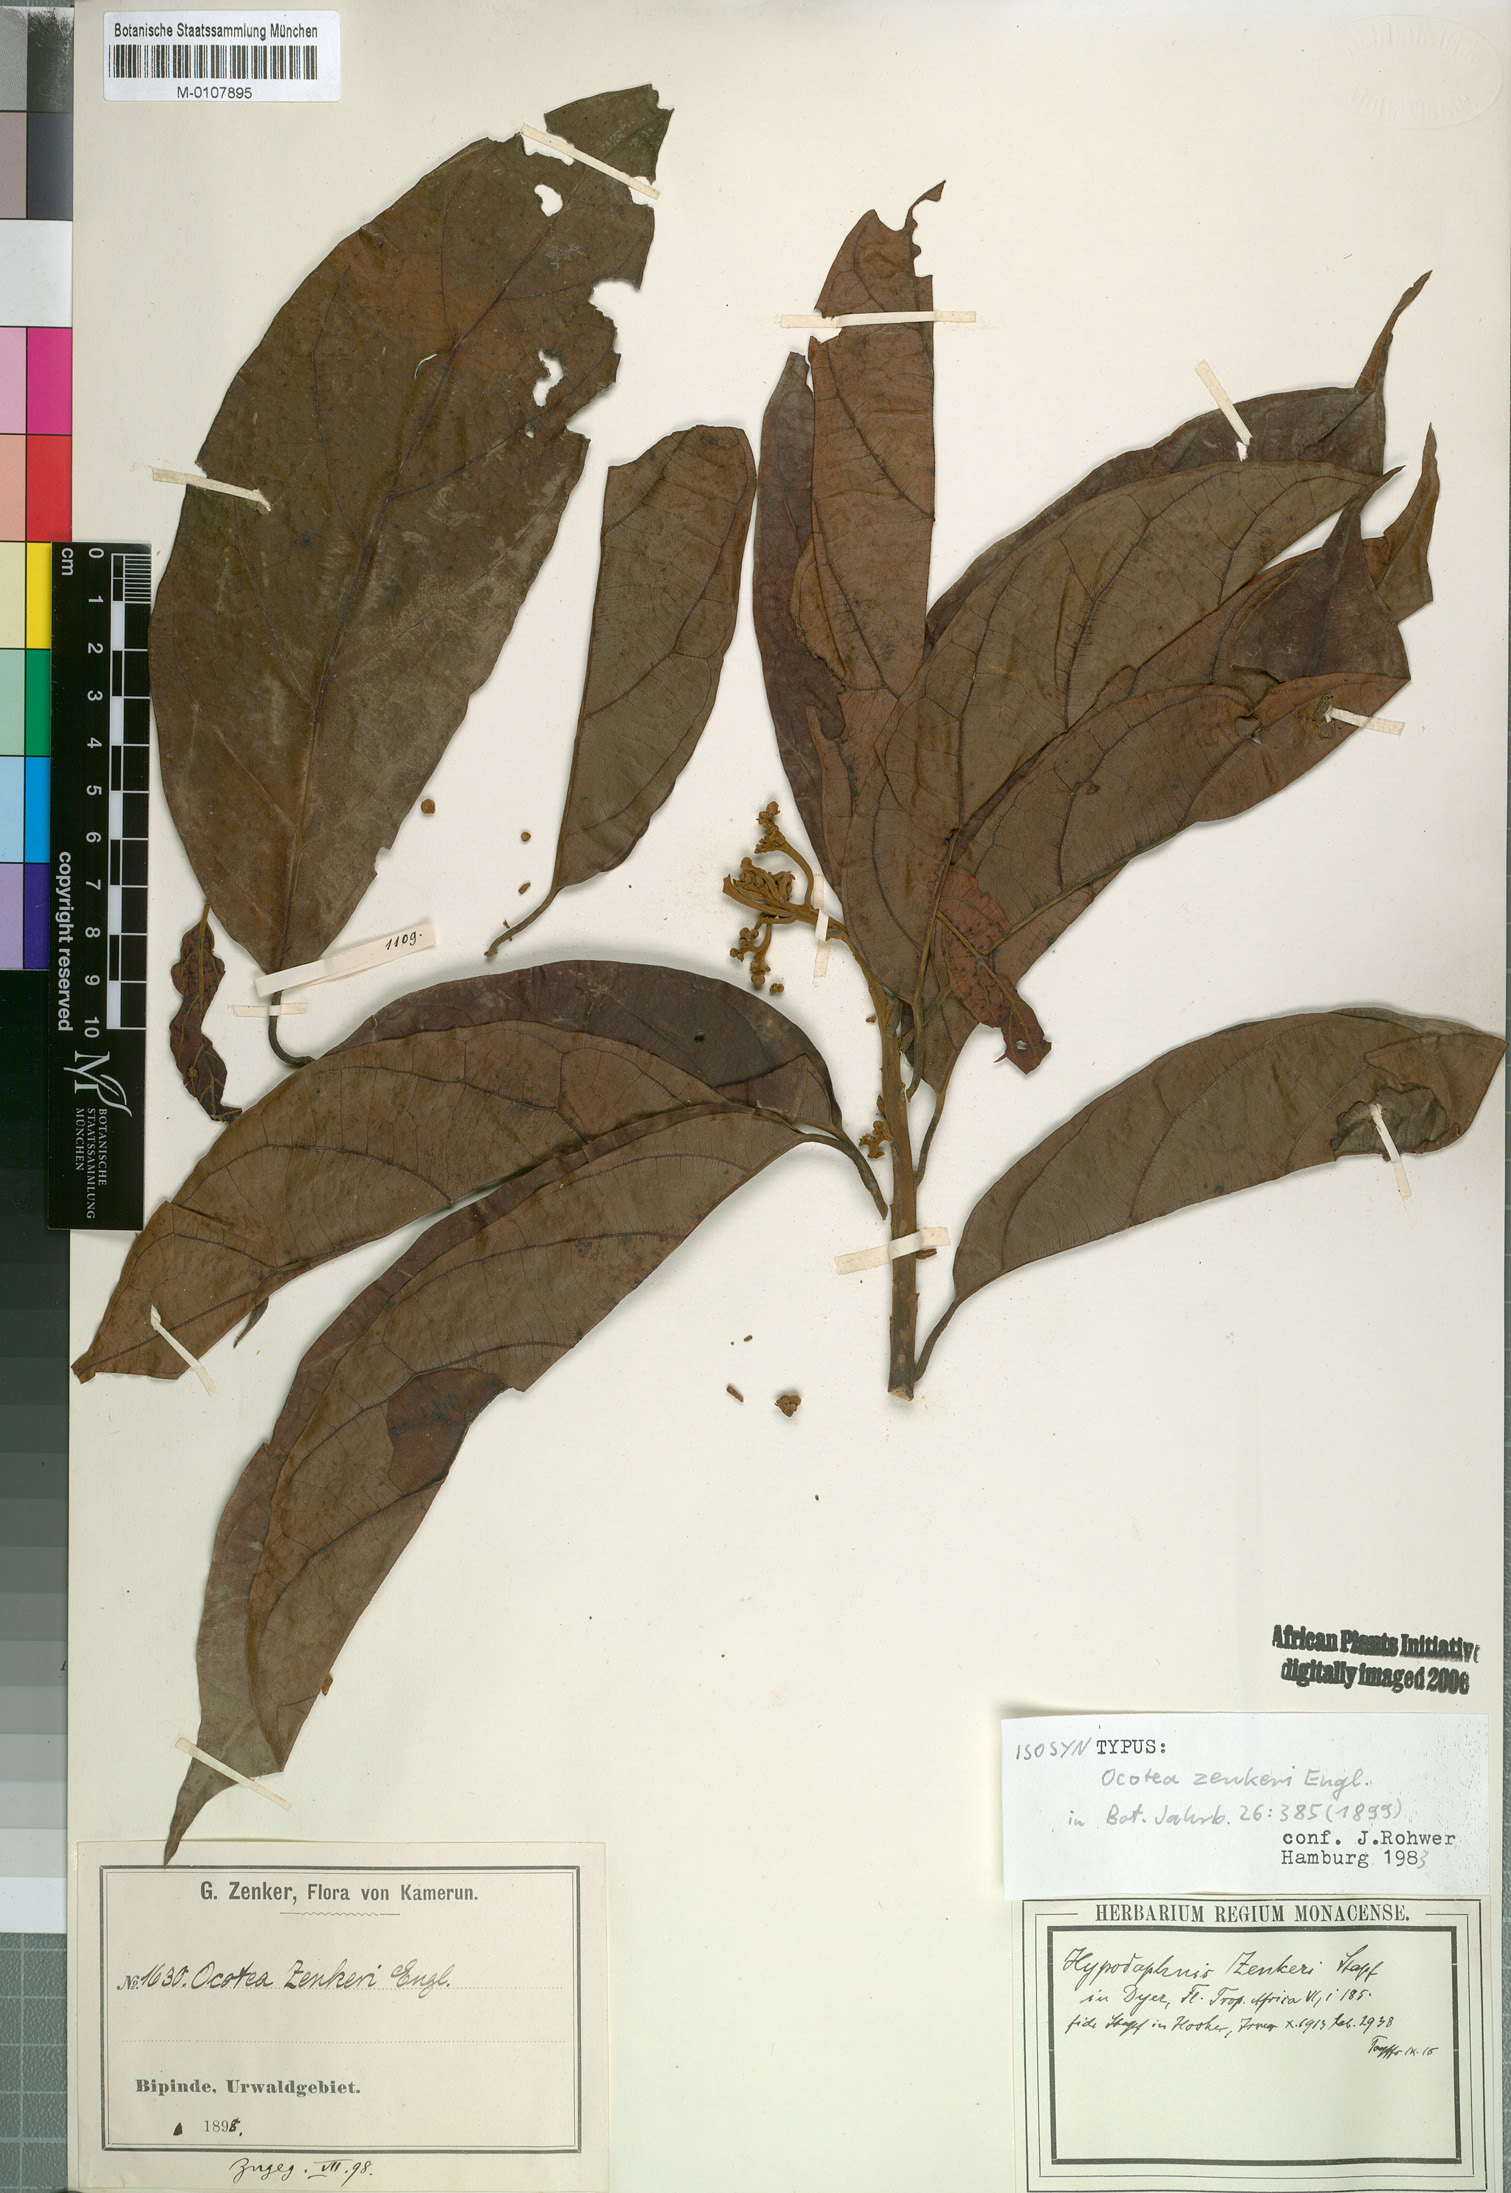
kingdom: Plantae
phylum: Tracheophyta
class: Magnoliopsida
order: Laurales
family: Lauraceae
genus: Hypodaphnis
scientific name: Hypodaphnis zenkeri
